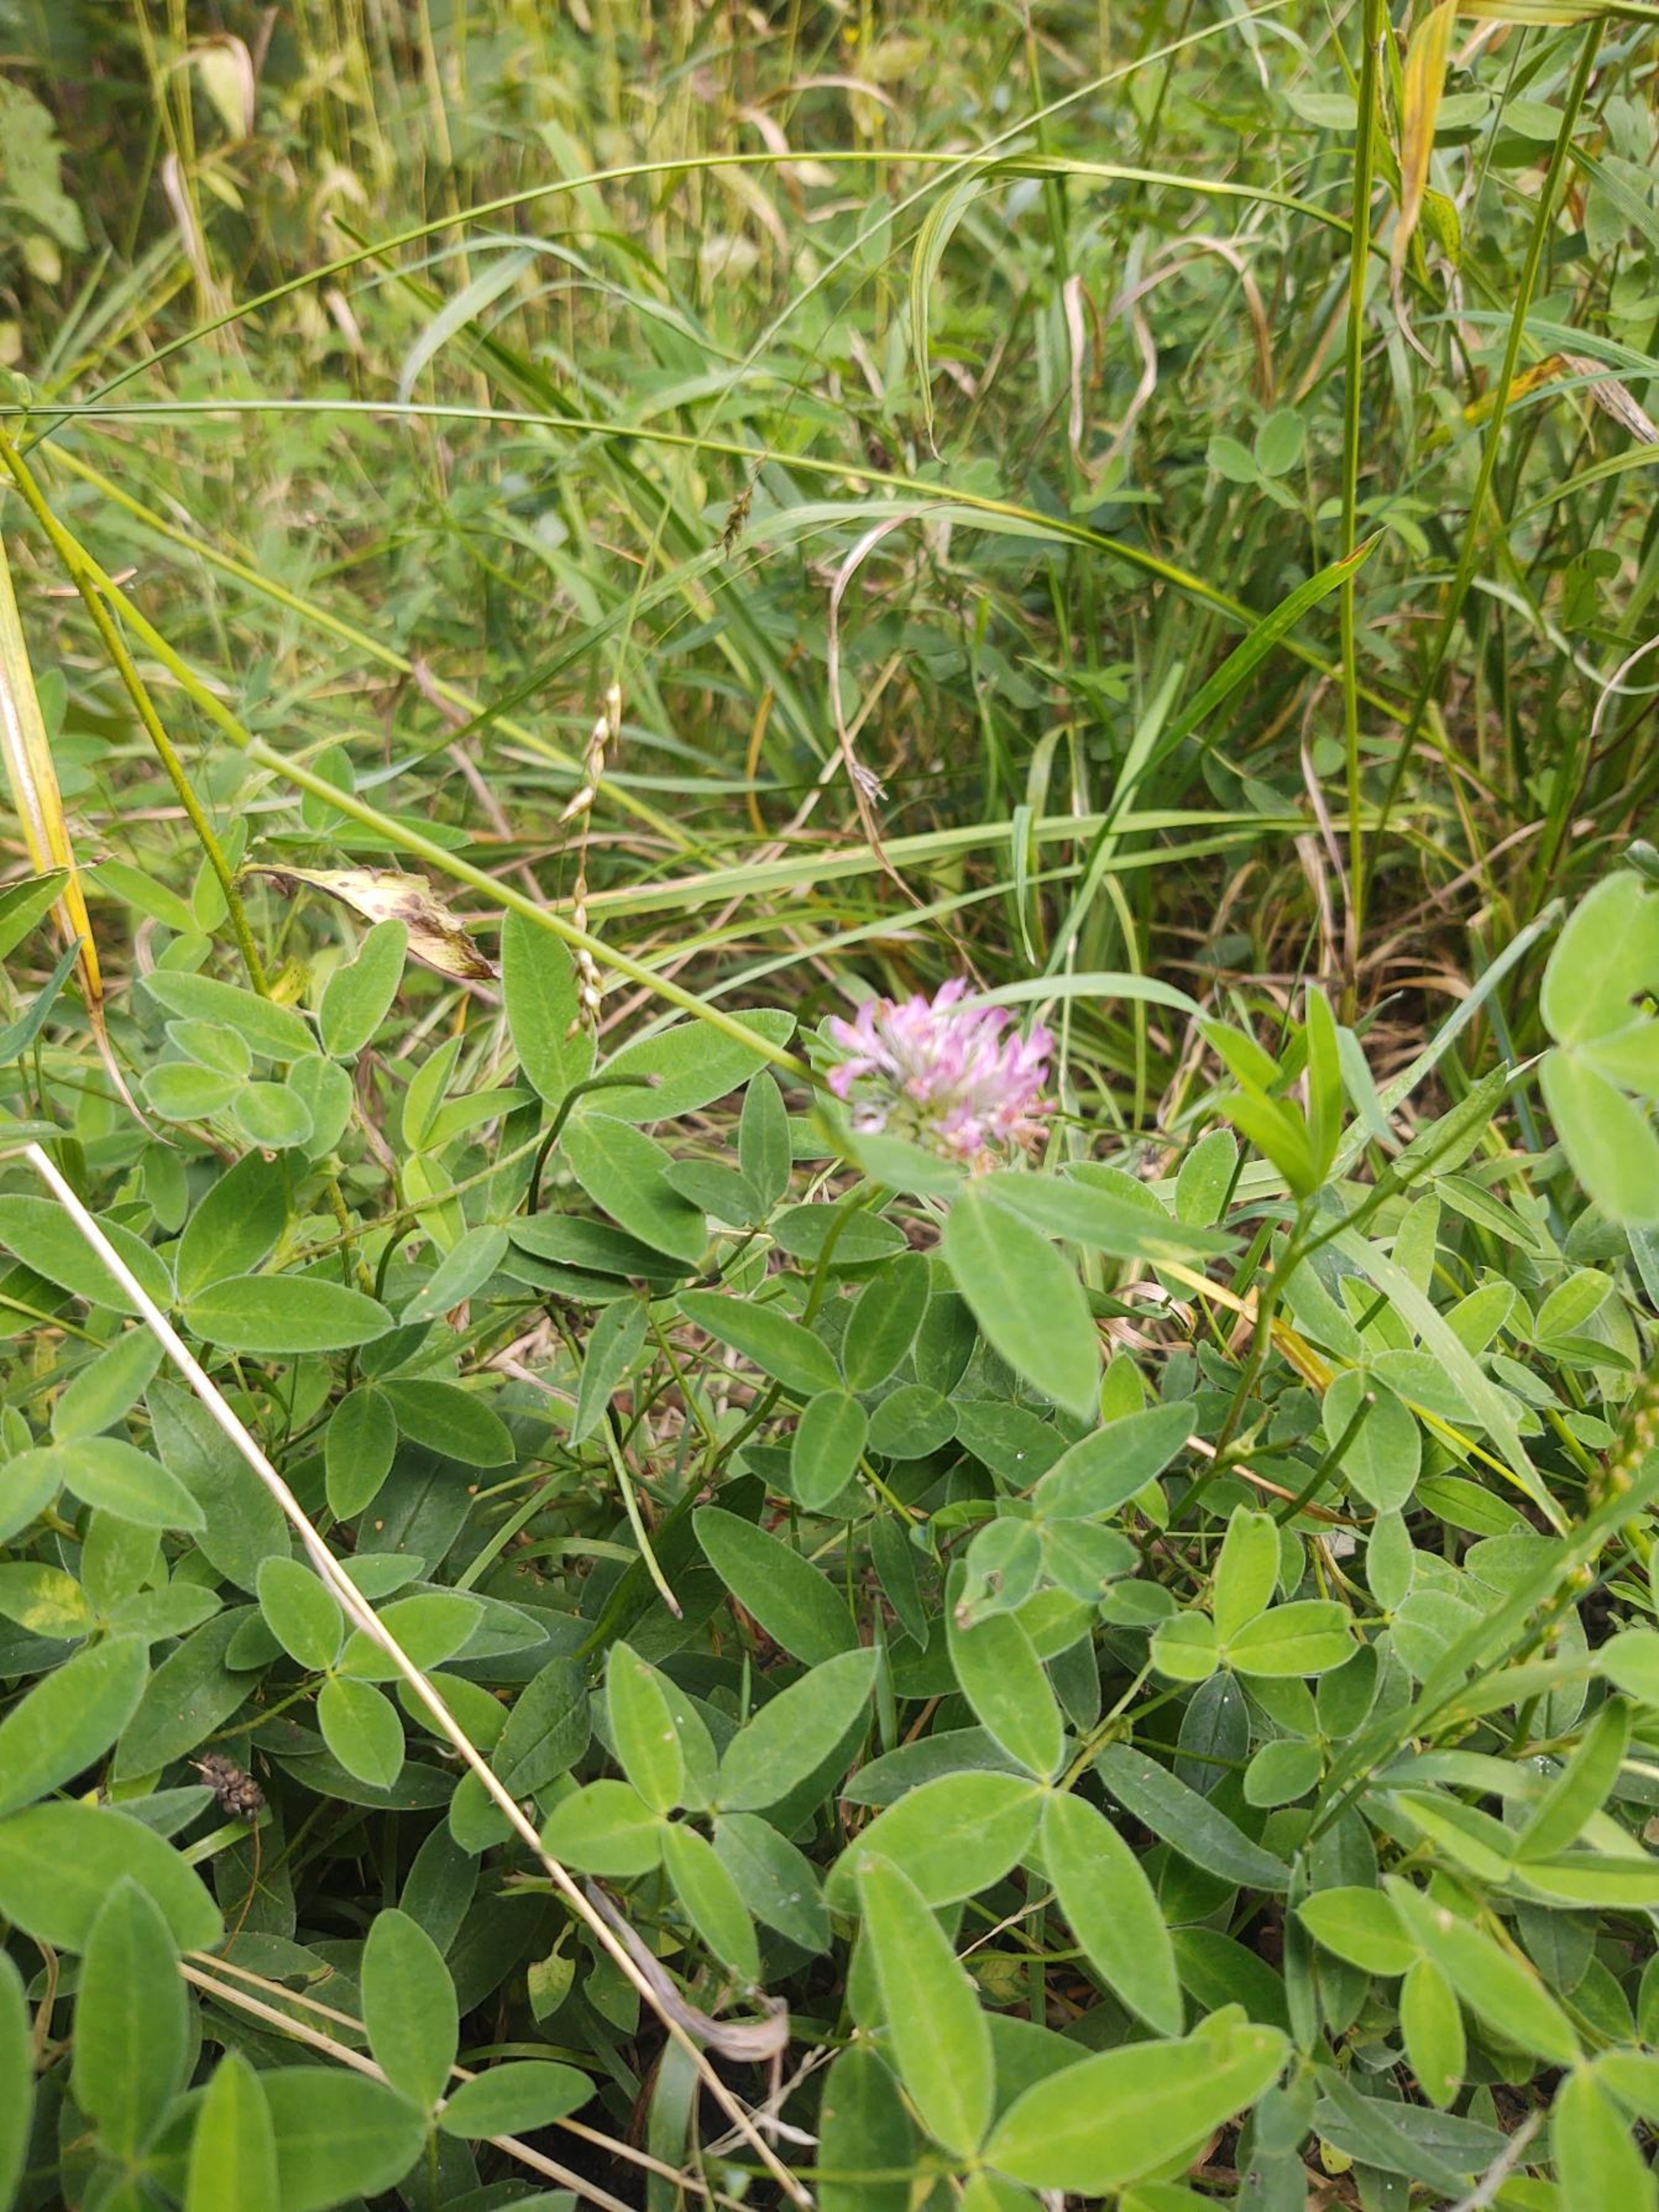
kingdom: Plantae
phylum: Tracheophyta
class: Magnoliopsida
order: Fabales
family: Fabaceae
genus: Trifolium
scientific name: Trifolium medium
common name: Bugtet kløver
